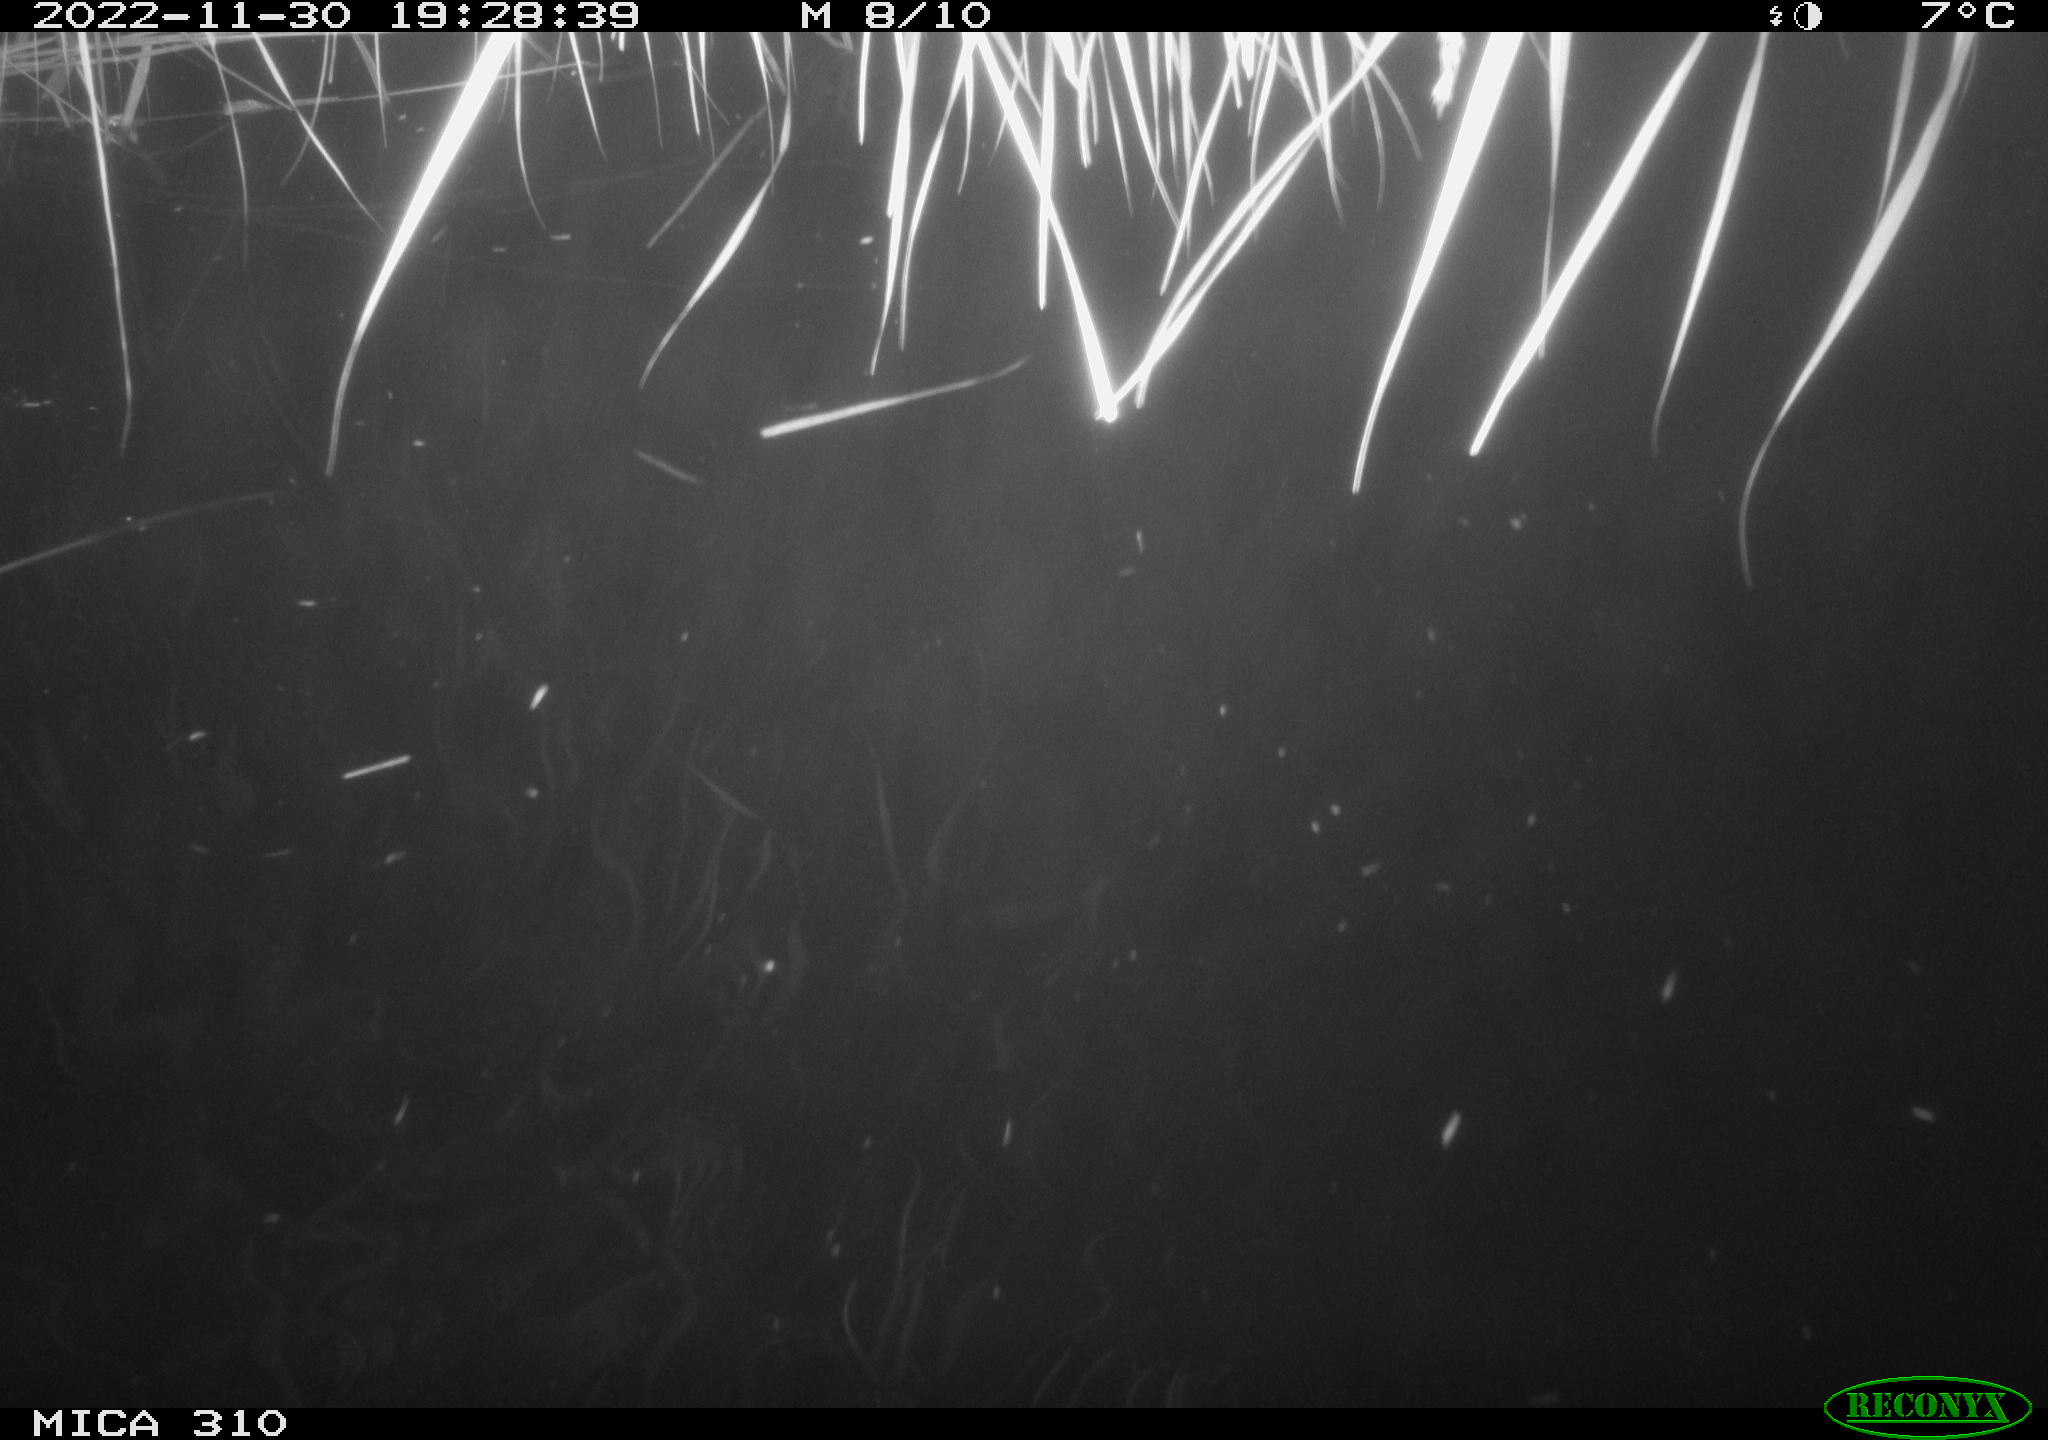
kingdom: Animalia
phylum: Chordata
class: Mammalia
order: Rodentia
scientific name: Rodentia
